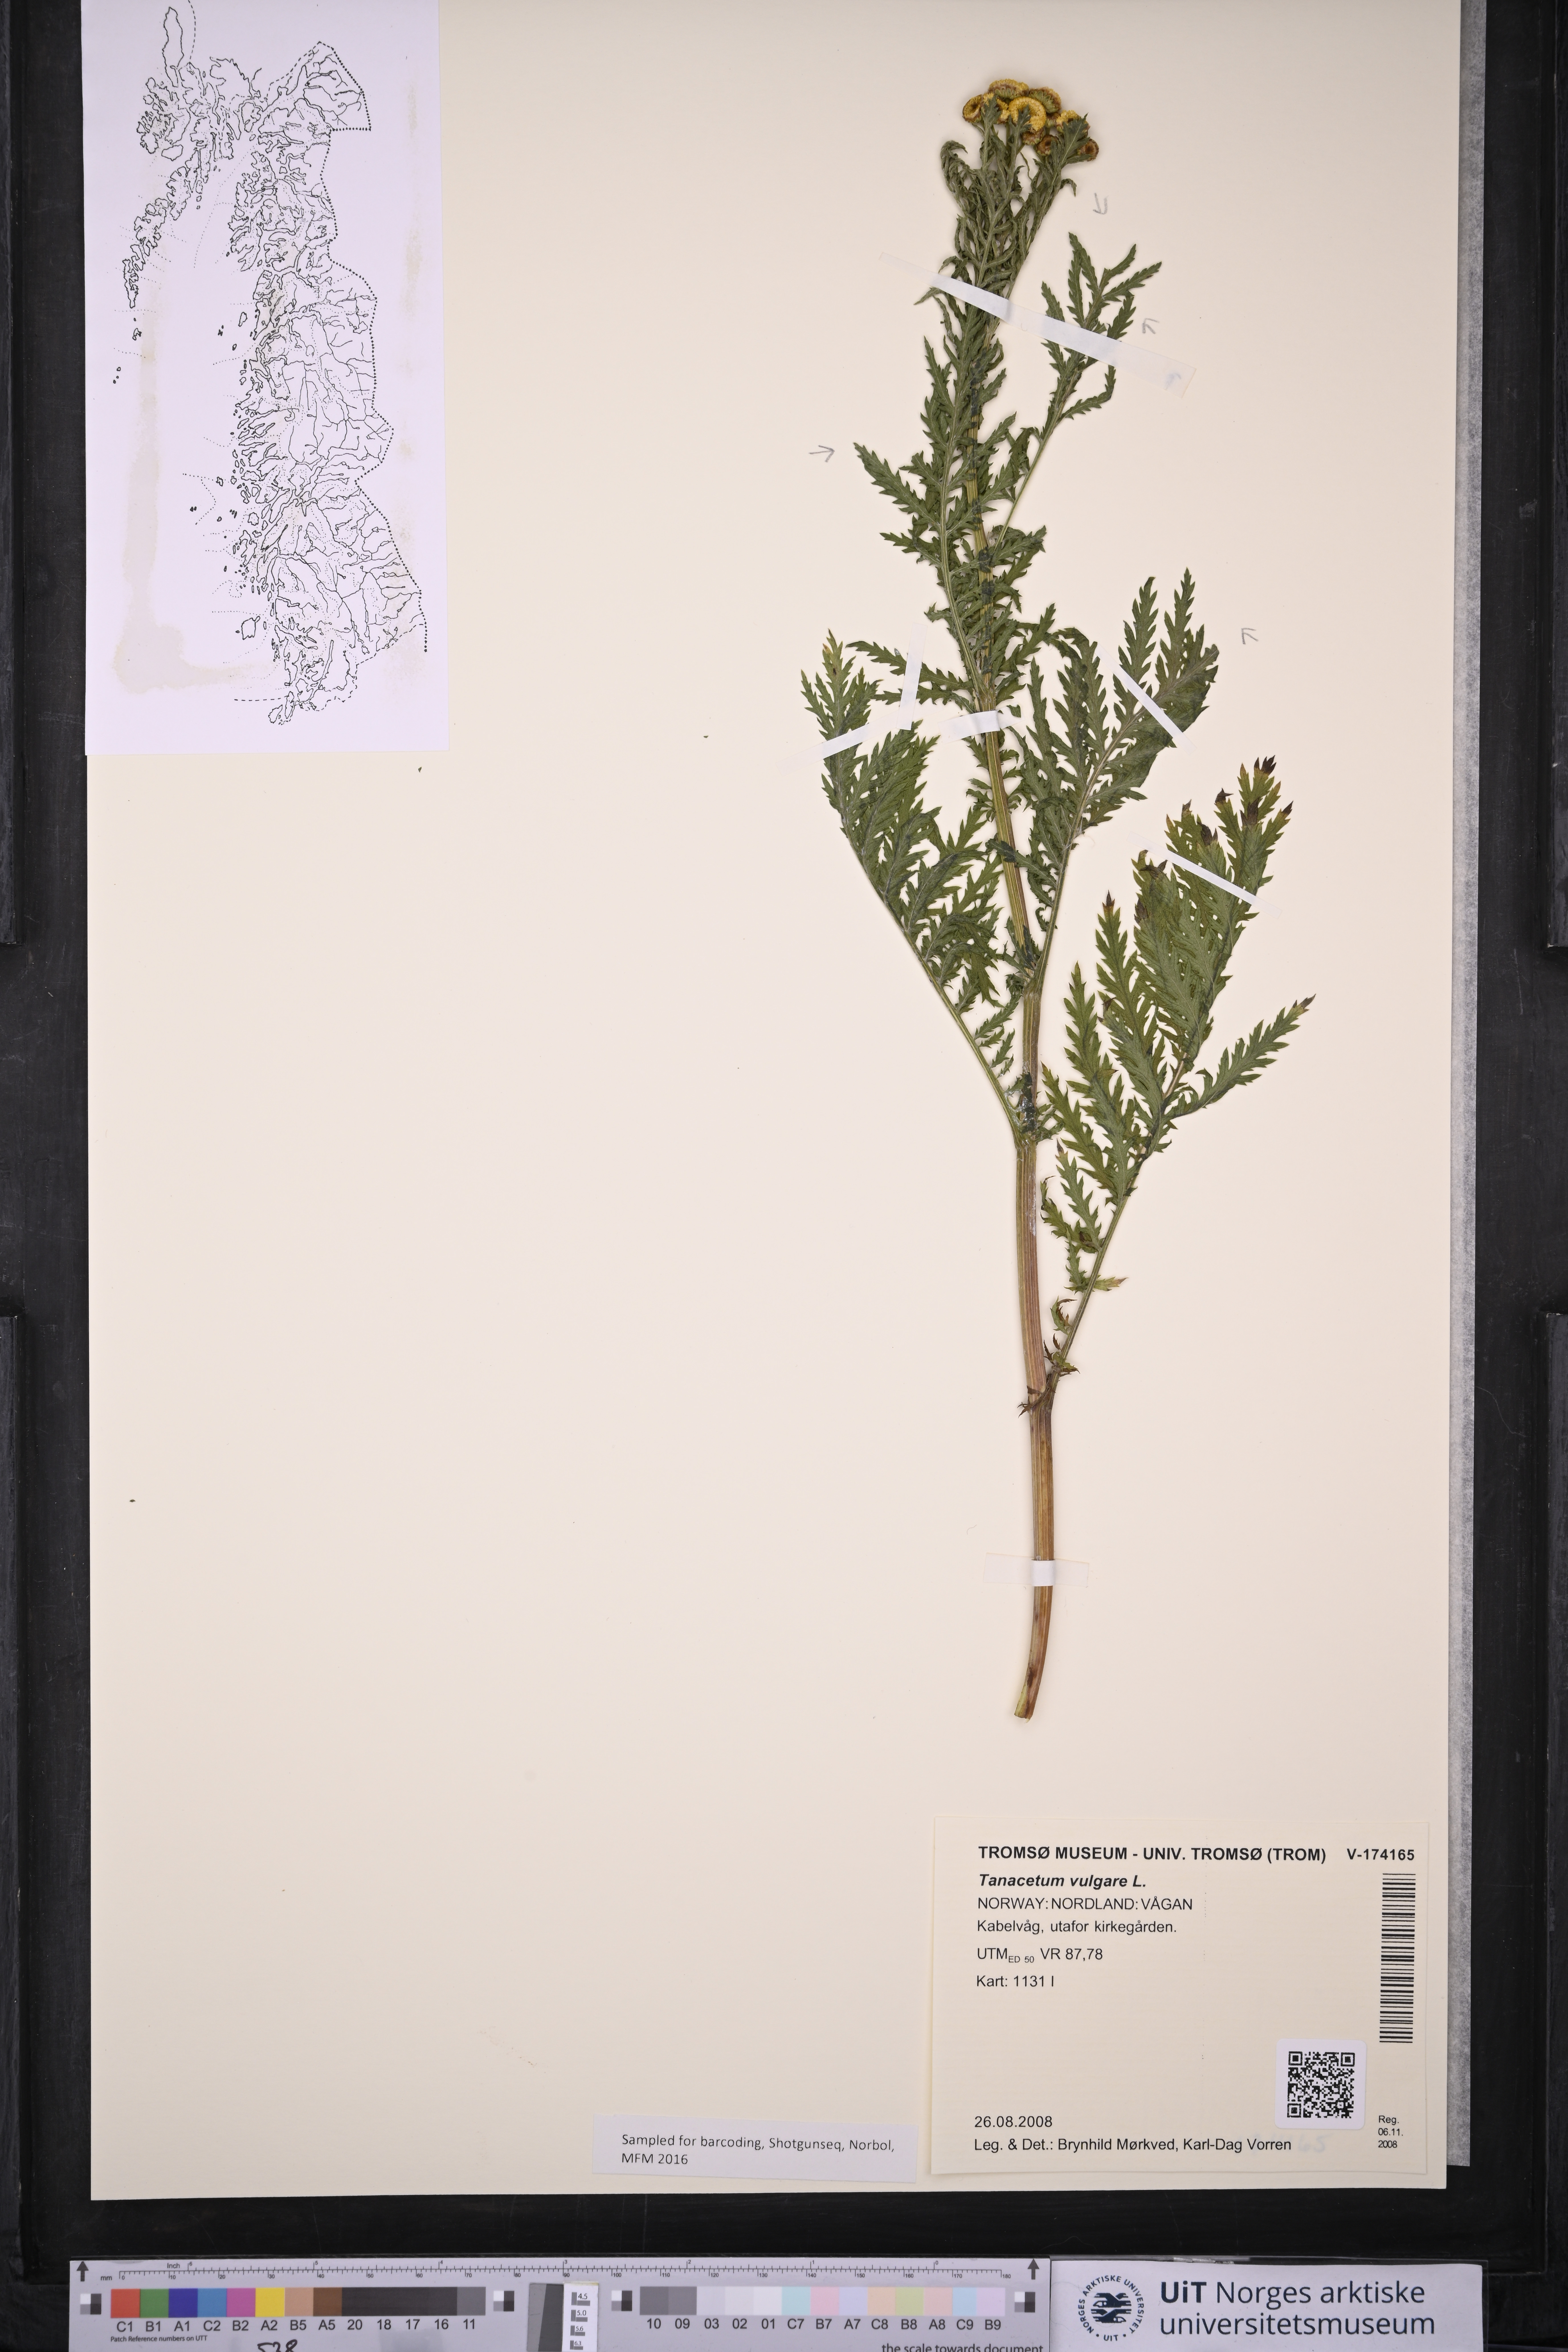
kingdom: Plantae
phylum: Tracheophyta
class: Magnoliopsida
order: Asterales
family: Asteraceae
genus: Tanacetum
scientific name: Tanacetum vulgare
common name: Common tansy
